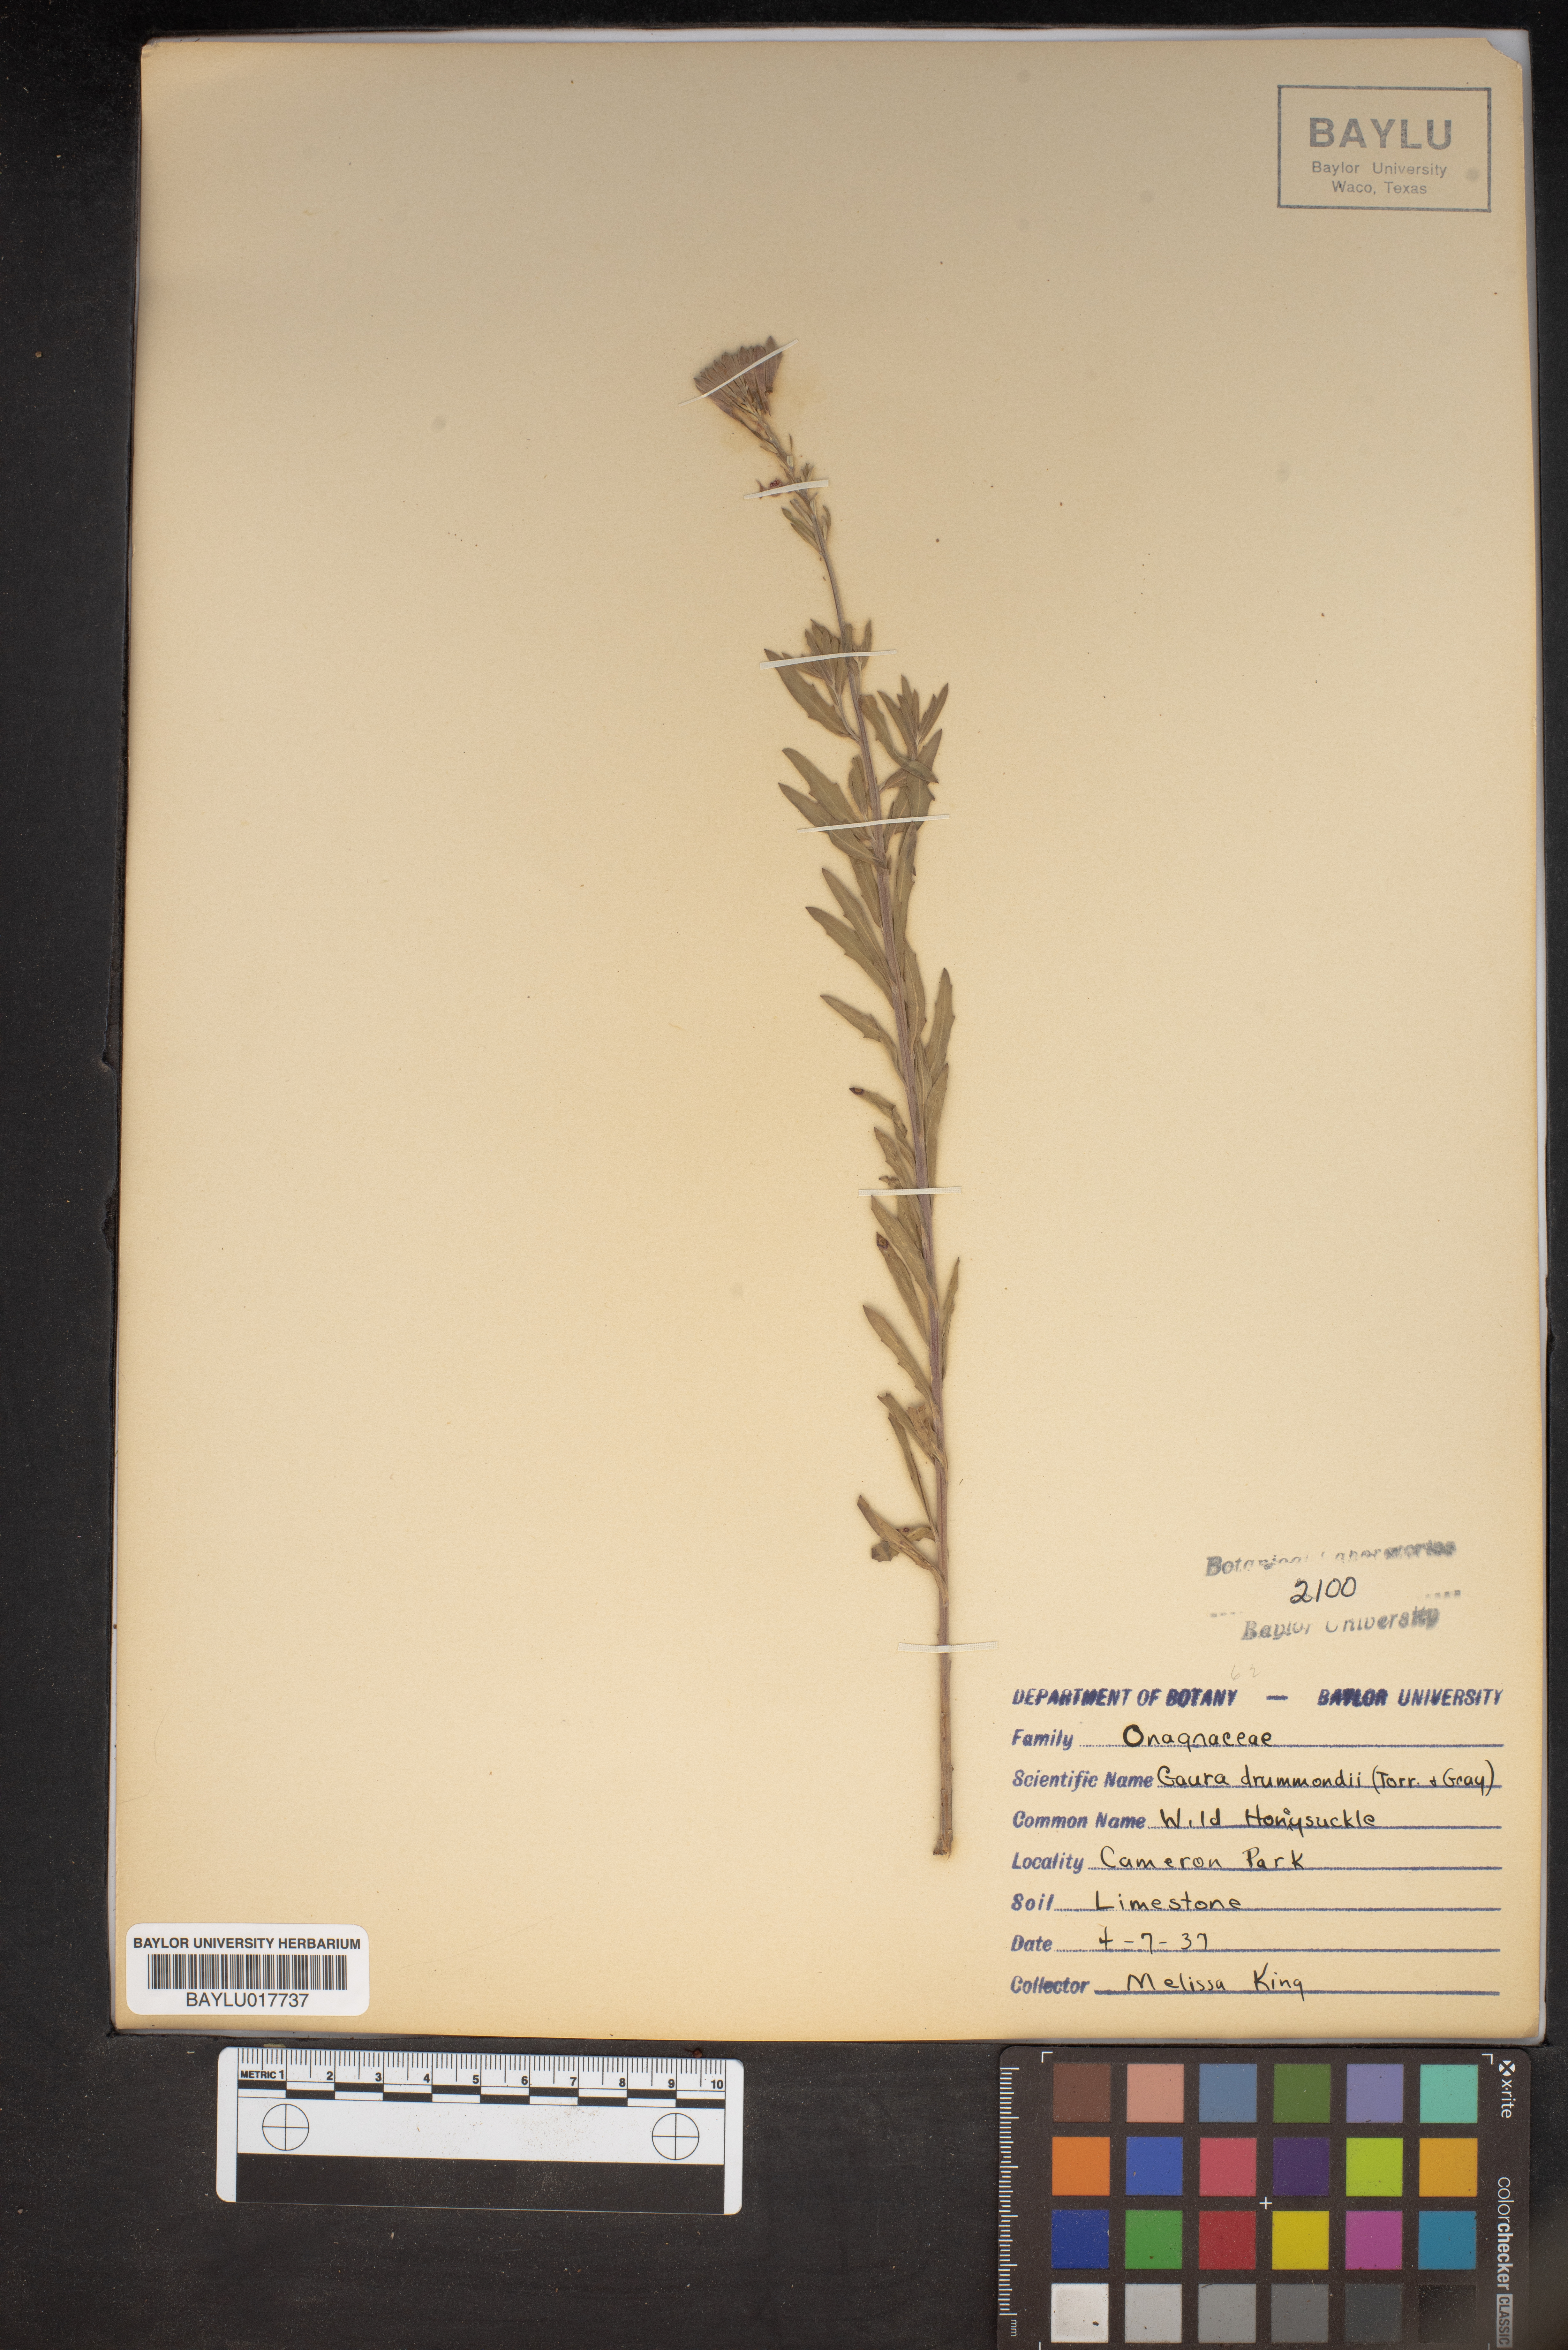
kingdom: Plantae
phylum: Tracheophyta
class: Magnoliopsida
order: Myrtales
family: Onagraceae
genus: Oenothera
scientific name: Oenothera hispida
